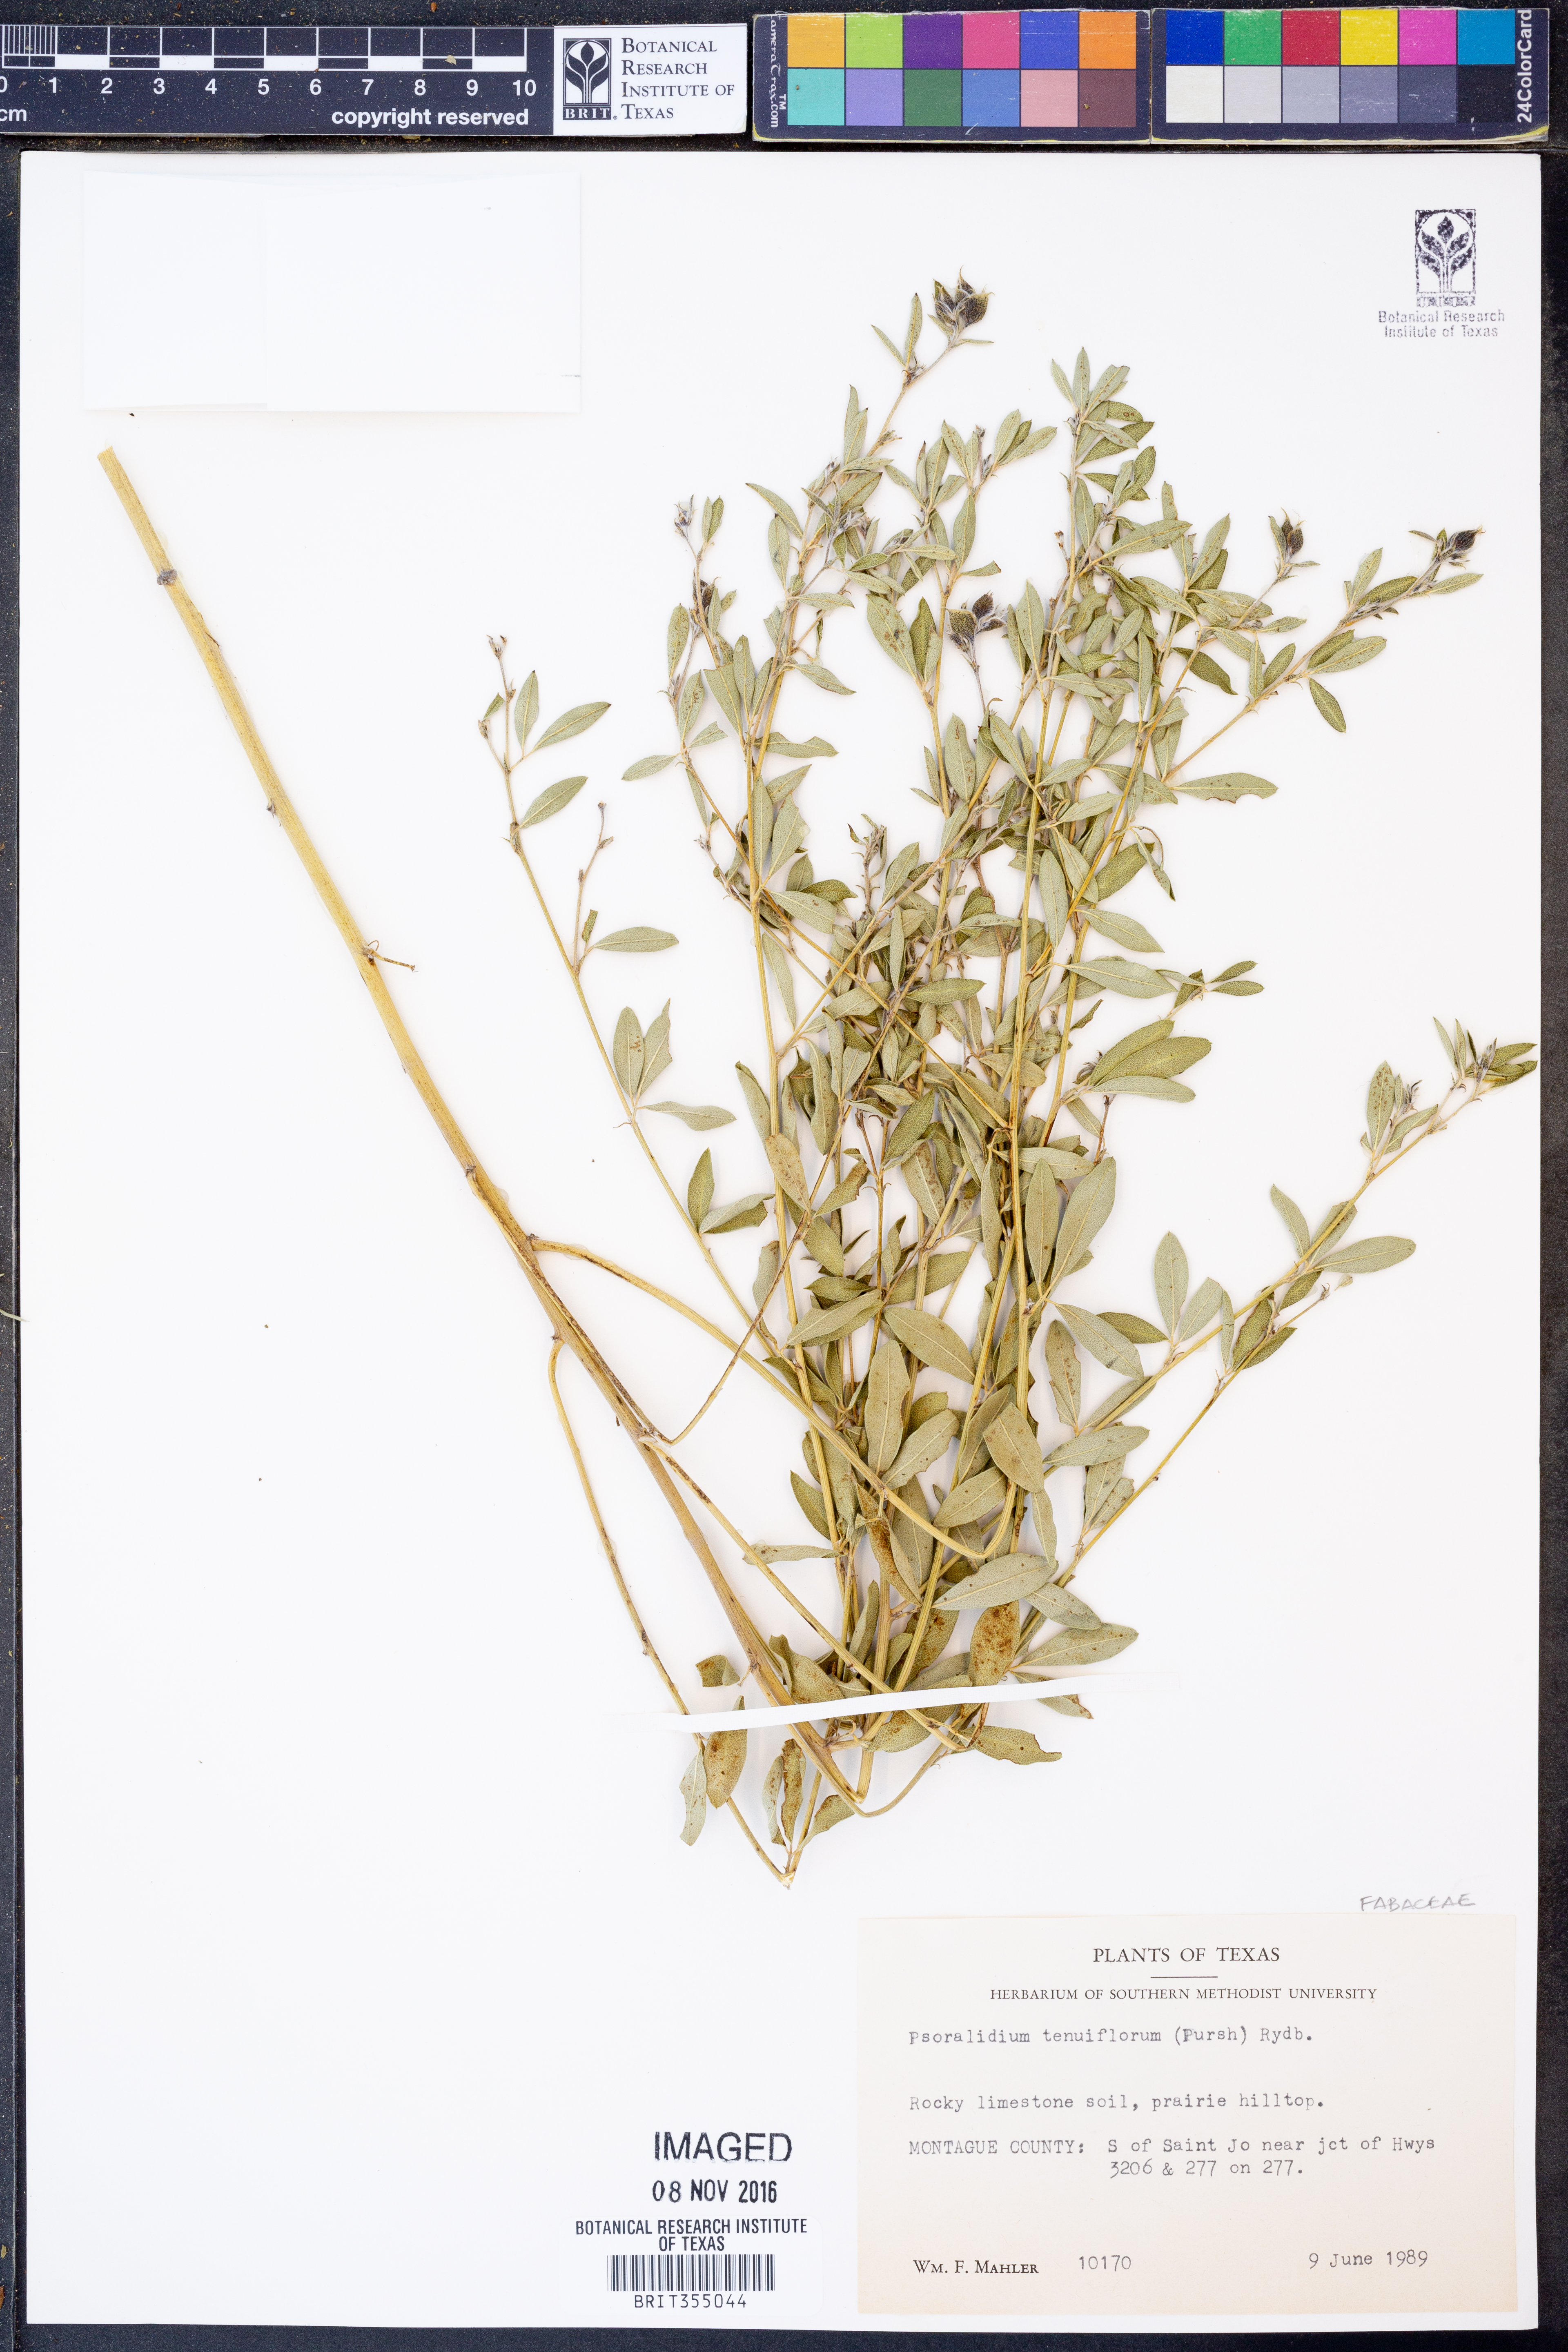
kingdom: Plantae
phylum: Tracheophyta
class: Magnoliopsida
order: Fabales
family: Fabaceae
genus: Pediomelum
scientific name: Pediomelum tenuiflorum
